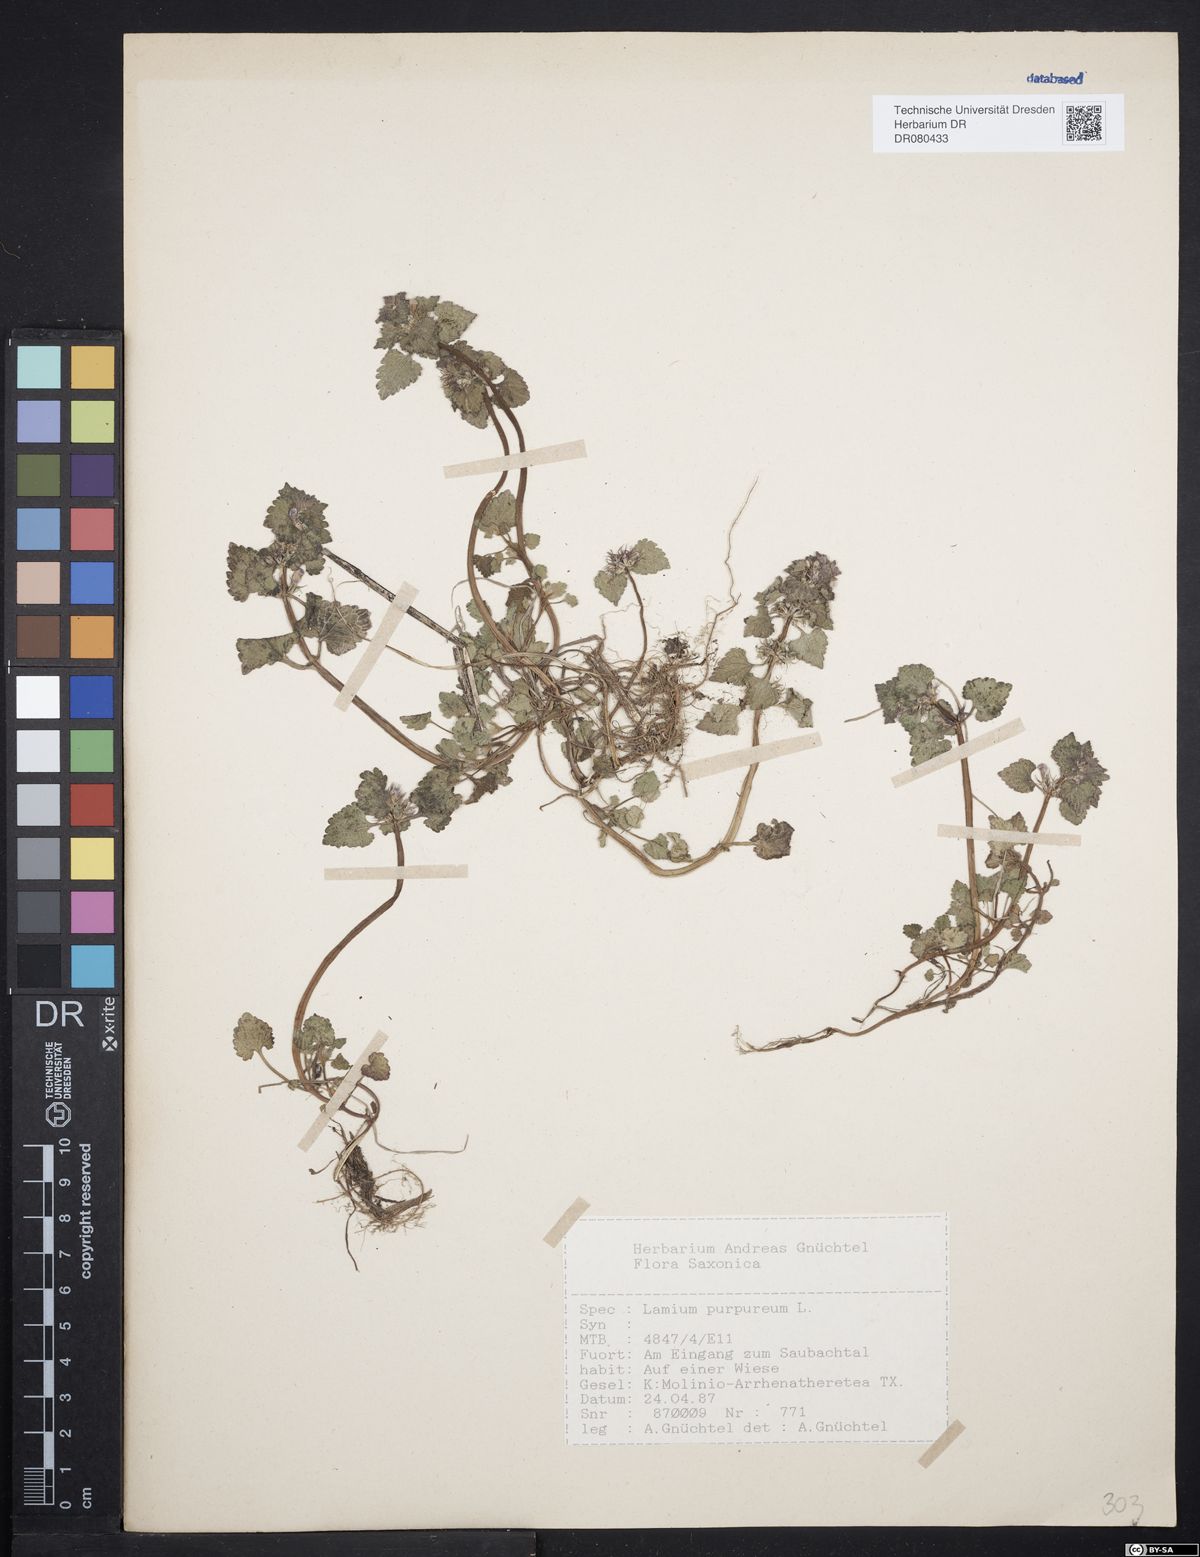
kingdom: Plantae
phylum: Tracheophyta
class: Magnoliopsida
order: Lamiales
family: Lamiaceae
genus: Lamium
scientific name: Lamium purpureum
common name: Red dead-nettle
